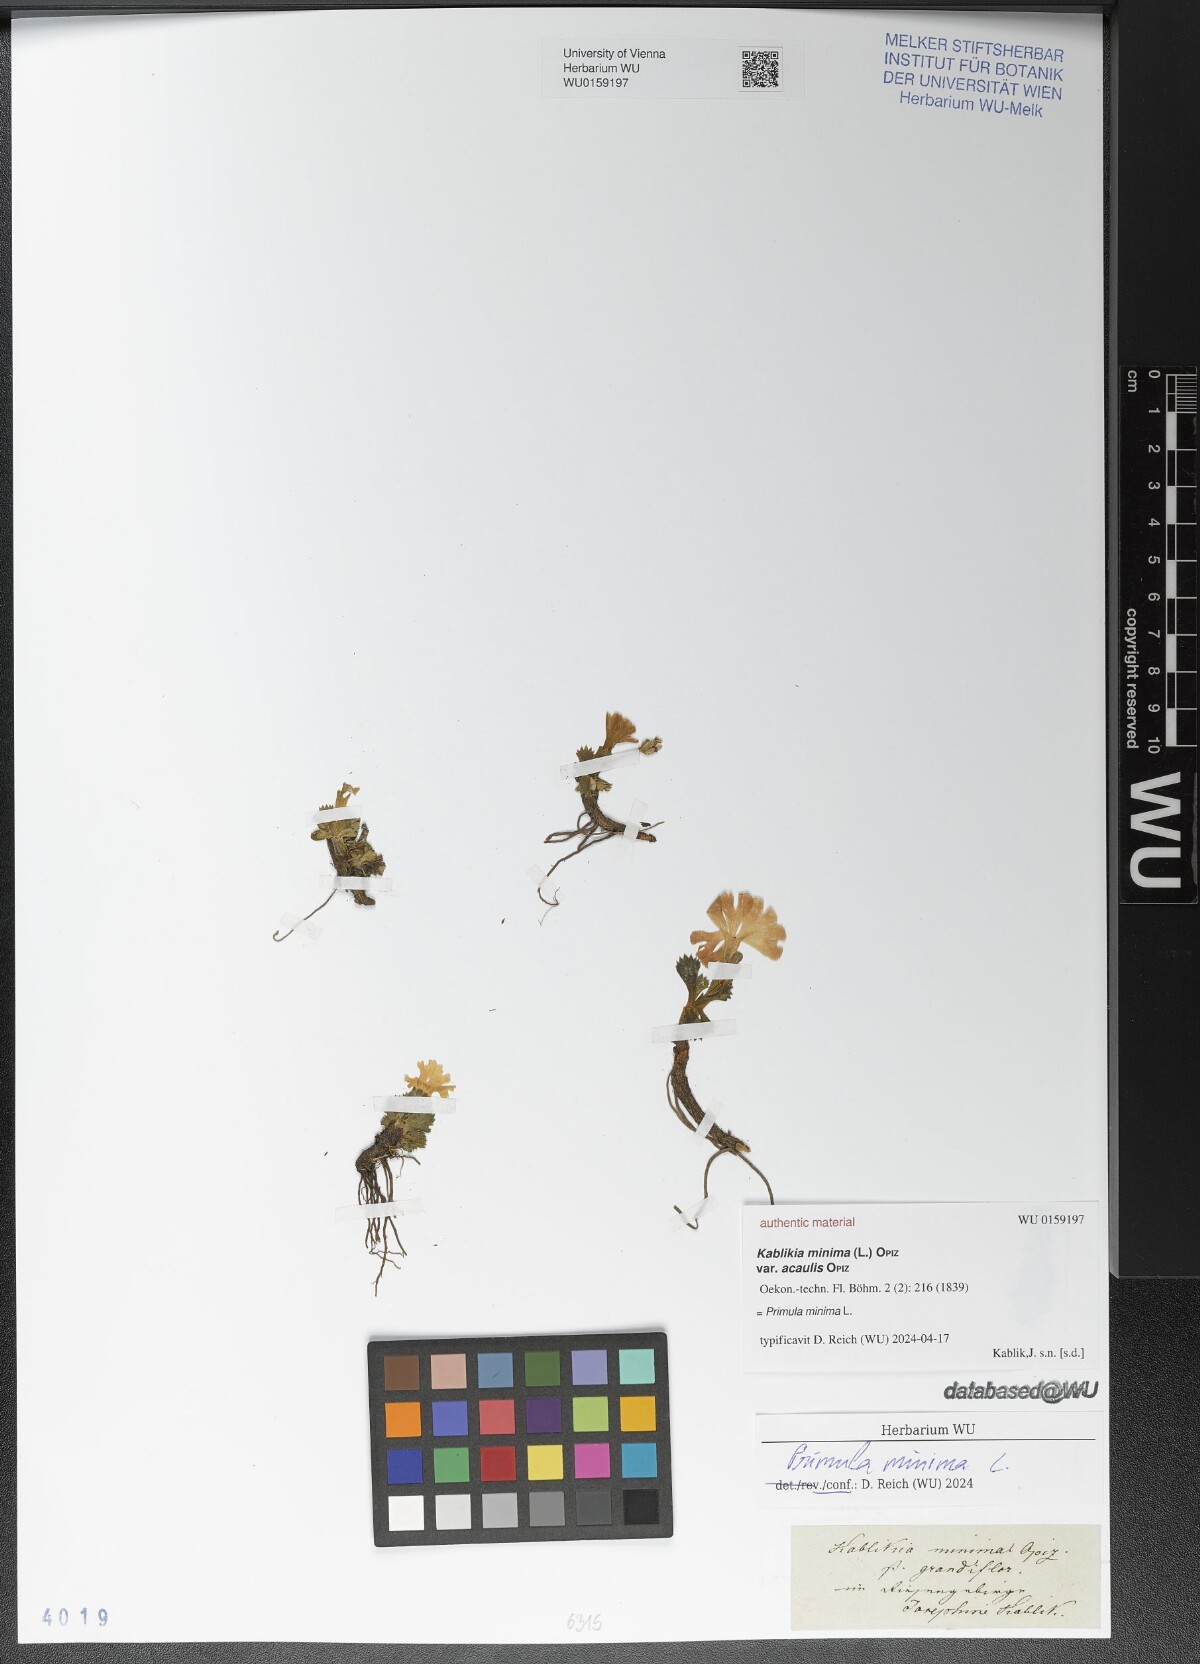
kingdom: Plantae
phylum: Tracheophyta
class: Magnoliopsida
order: Ericales
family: Primulaceae
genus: Primula
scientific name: Primula minima
